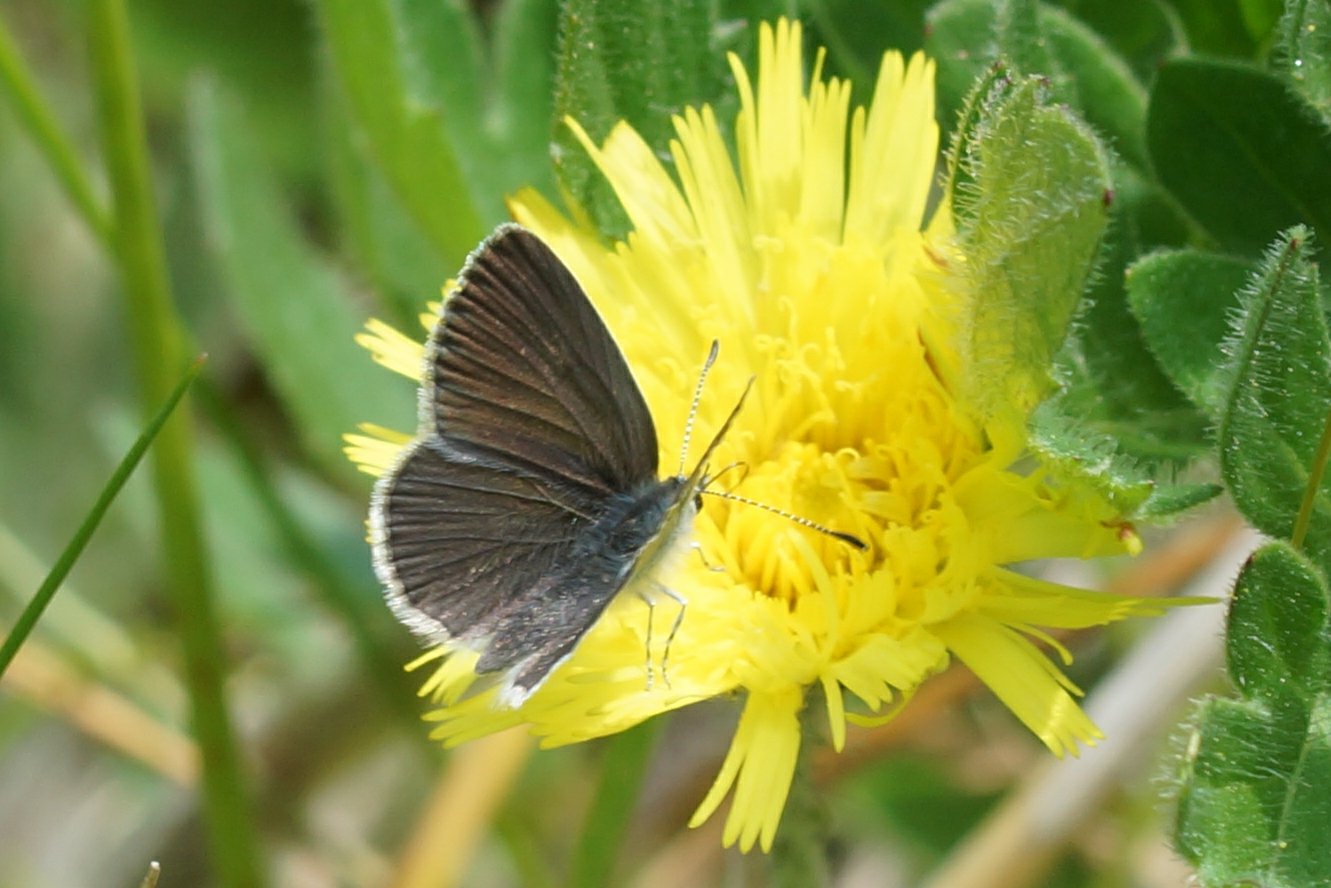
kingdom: Animalia
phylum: Arthropoda
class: Insecta
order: Lepidoptera
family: Lycaenidae
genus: Cupido
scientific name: Cupido minimus
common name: Dværgblåfugl
